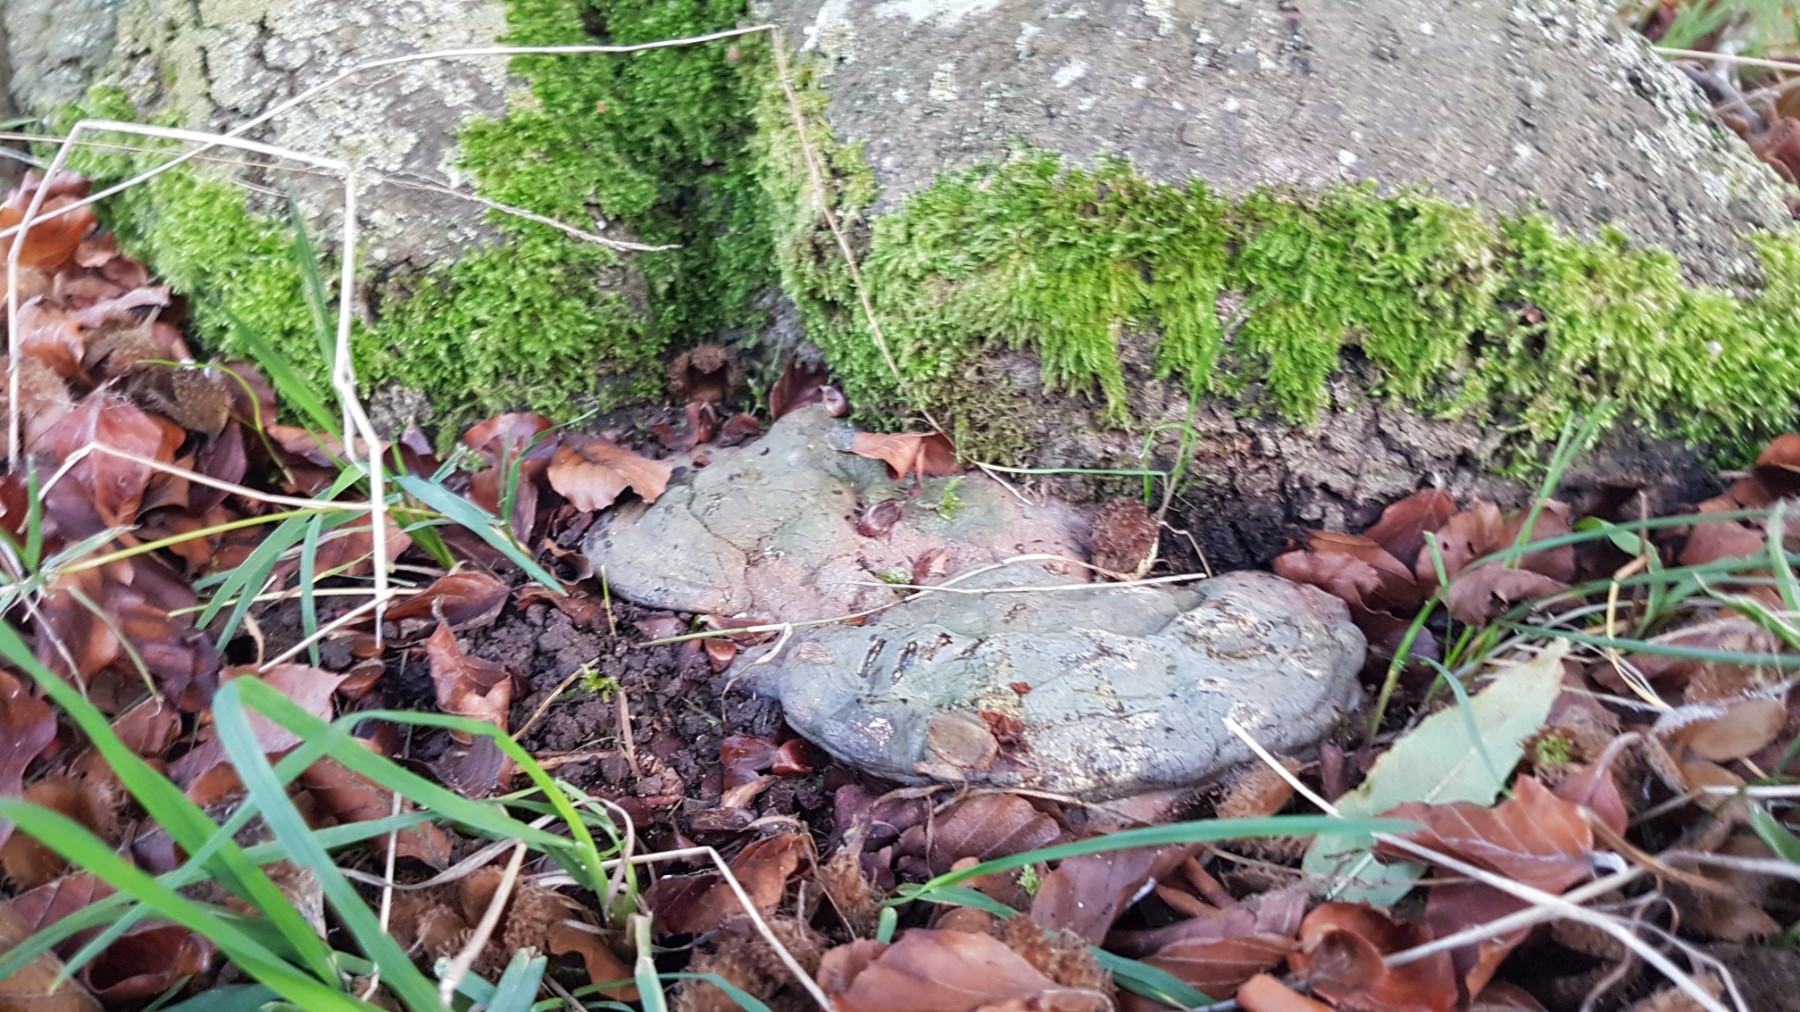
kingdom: Fungi
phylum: Basidiomycota
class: Agaricomycetes
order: Polyporales
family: Polyporaceae
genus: Ganoderma
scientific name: Ganoderma pfeifferi
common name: kobberrød lakporesvamp
